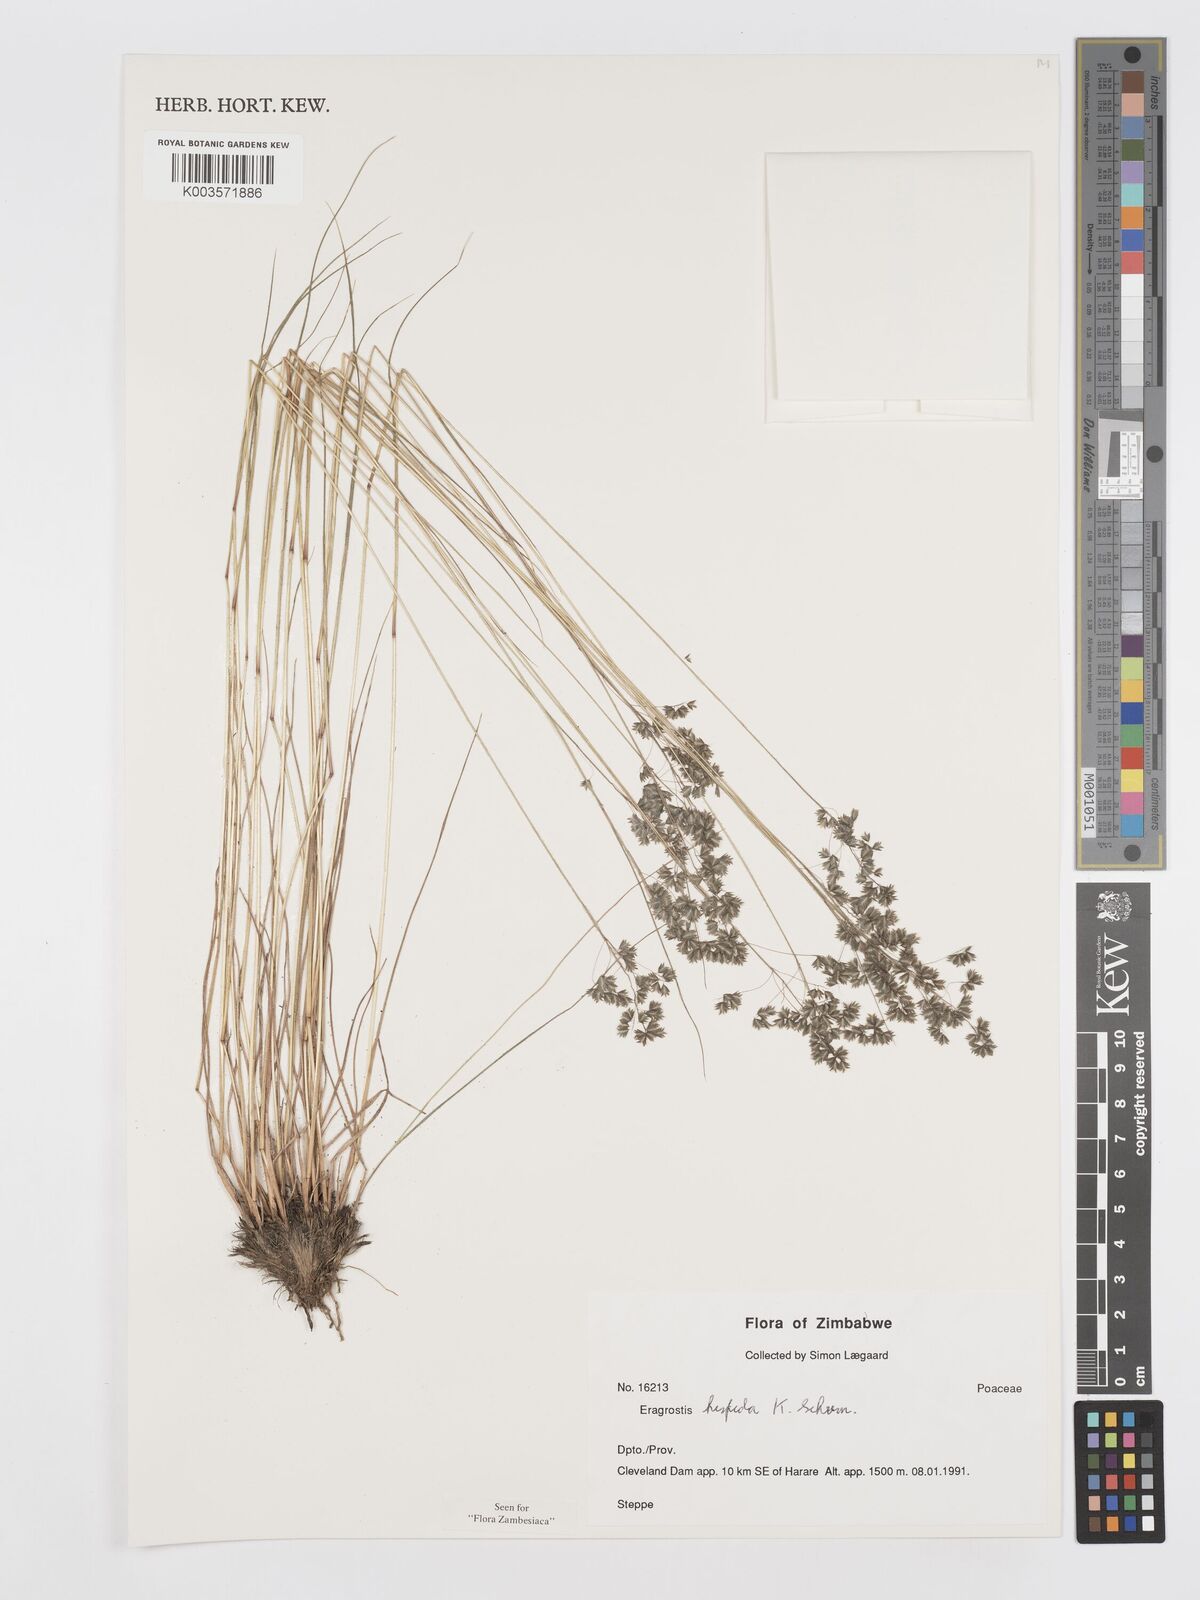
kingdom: Plantae
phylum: Tracheophyta
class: Liliopsida
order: Poales
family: Poaceae
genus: Eragrostis
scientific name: Eragrostis hispida
